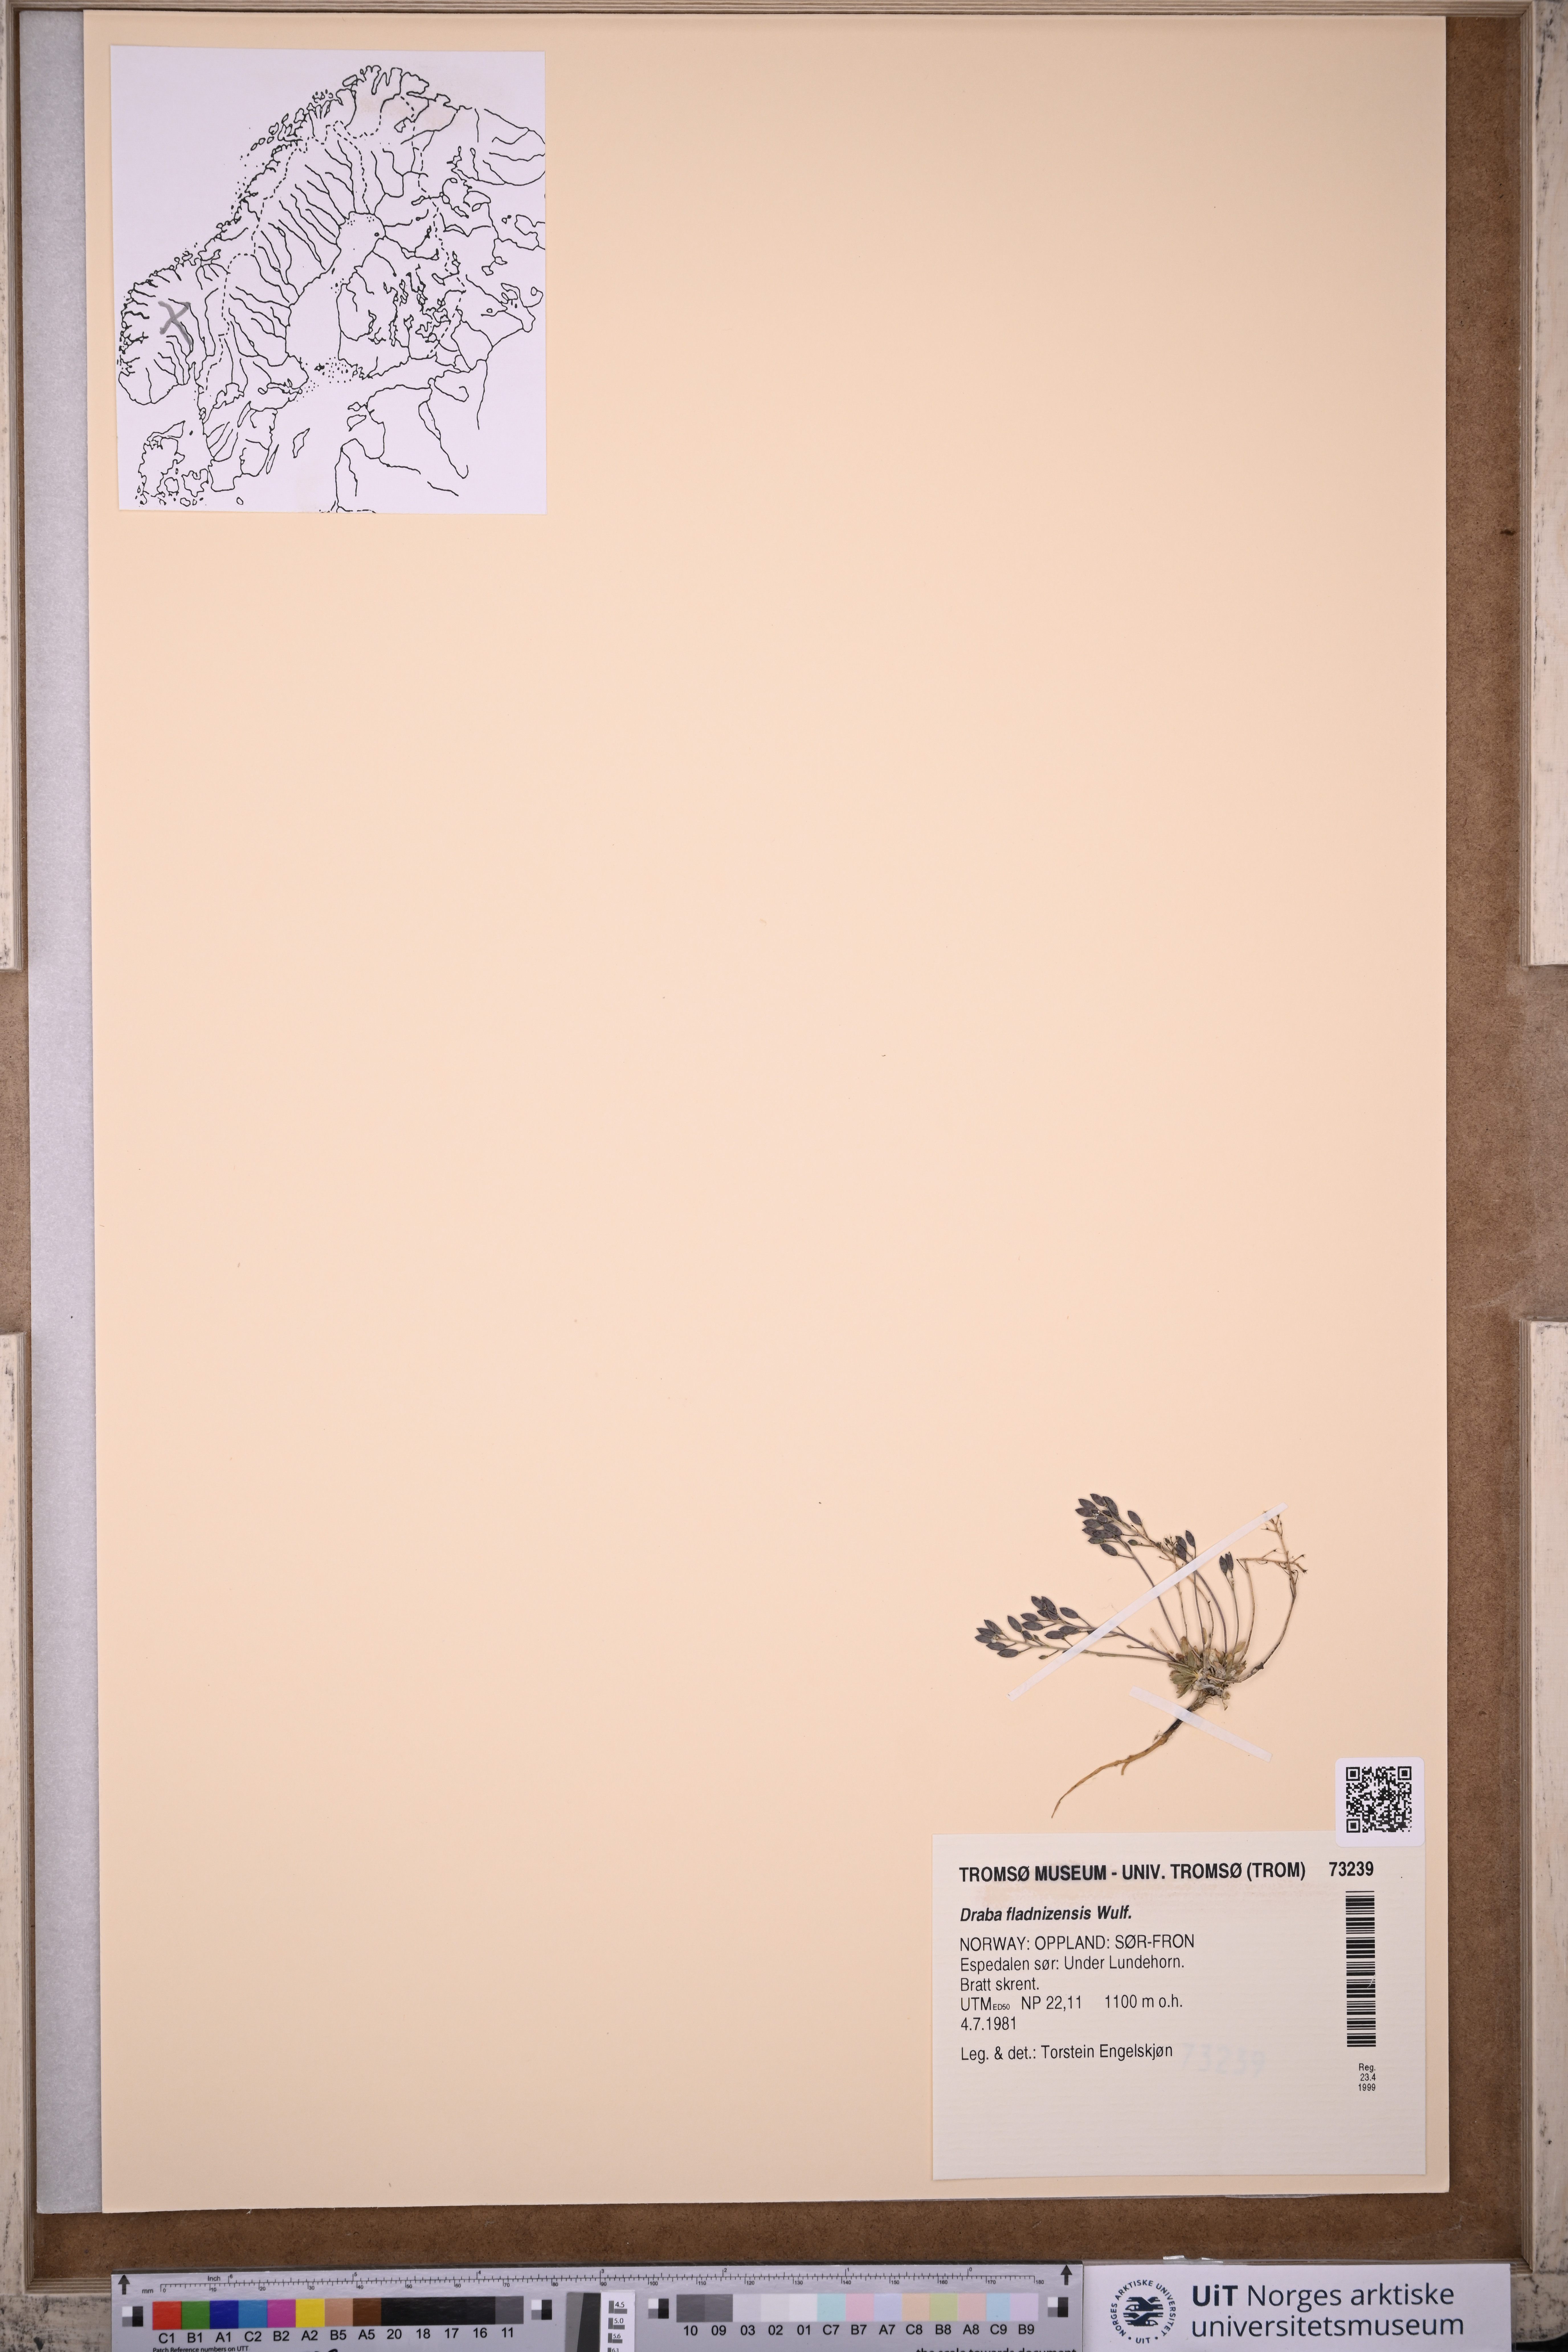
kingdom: Plantae
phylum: Tracheophyta
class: Magnoliopsida
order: Brassicales
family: Brassicaceae
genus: Draba
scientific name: Draba fladnizensis
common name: Austrian draba
